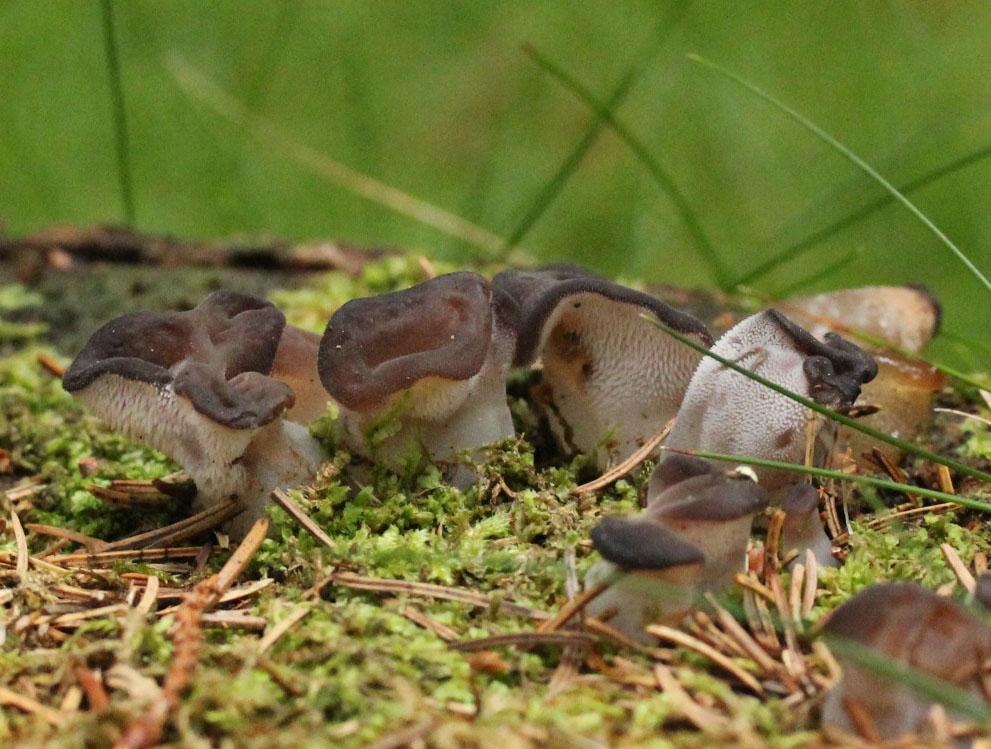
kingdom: Fungi
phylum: Basidiomycota
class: Agaricomycetes
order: Auriculariales
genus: Pseudohydnum
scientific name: Pseudohydnum gelatinosum
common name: bævretand
